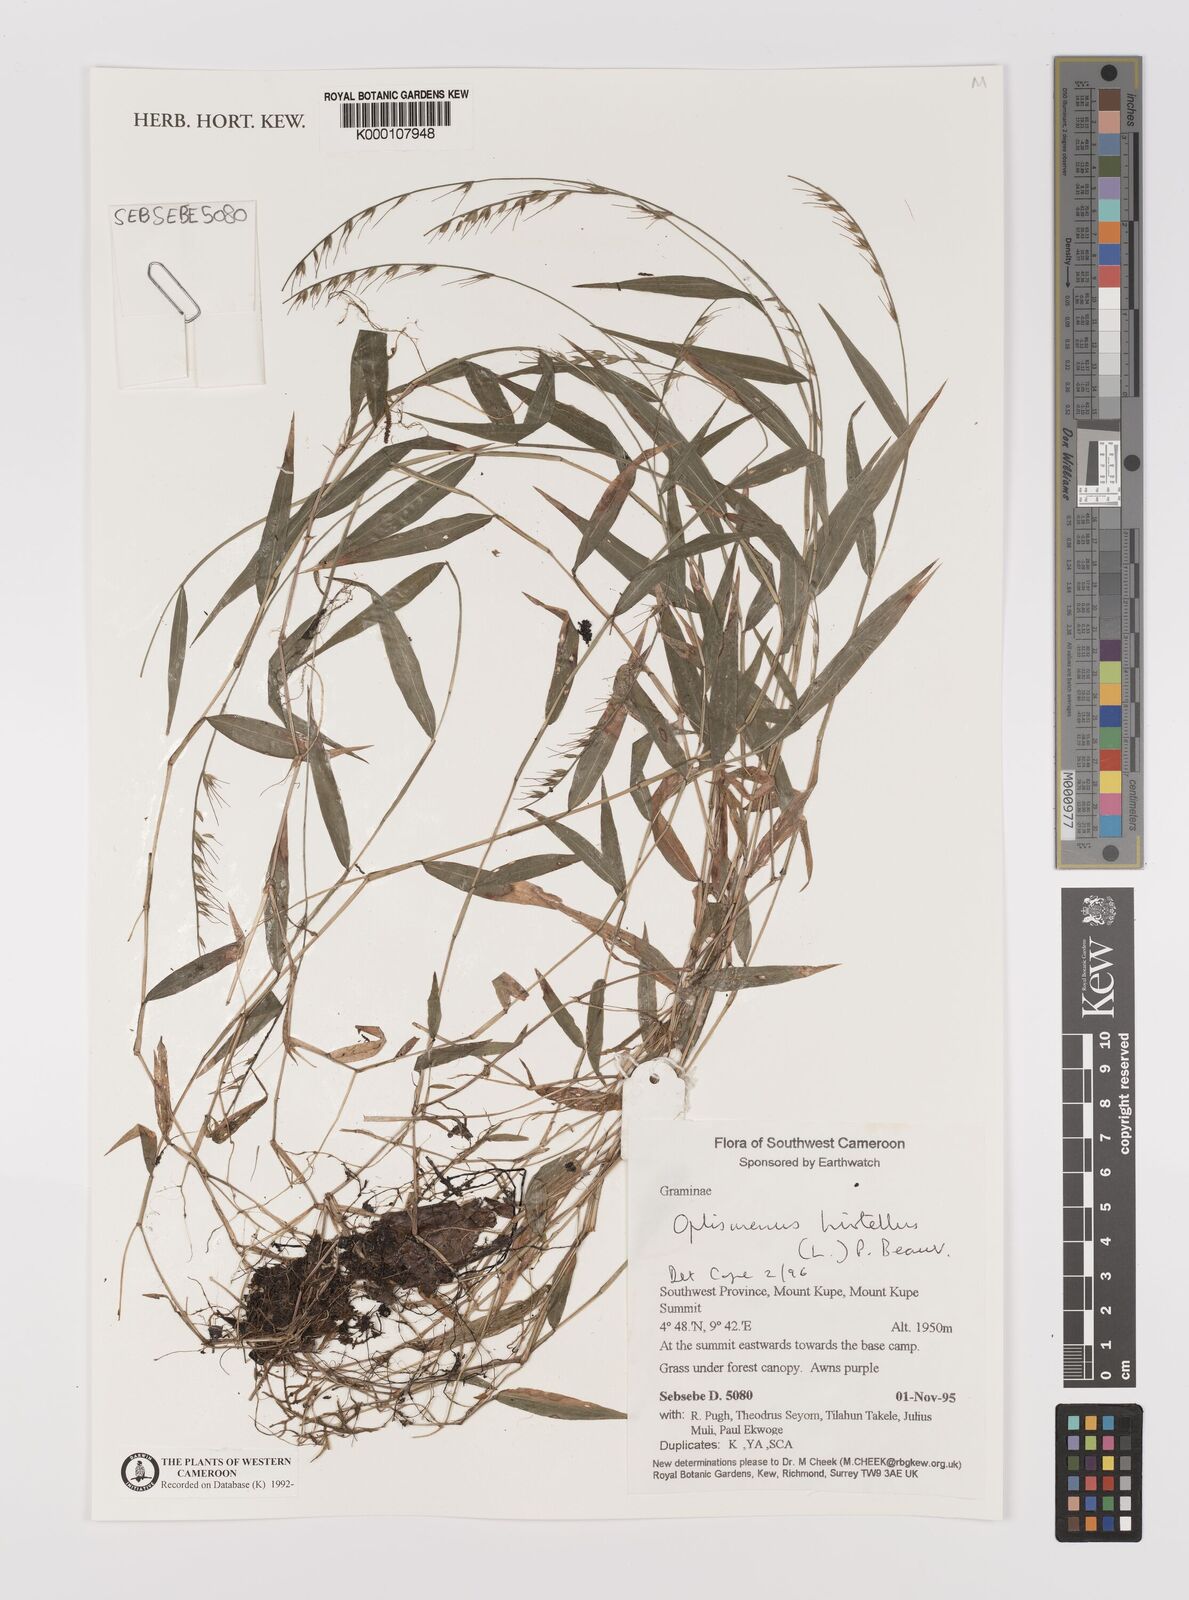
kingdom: Plantae
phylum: Tracheophyta
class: Liliopsida
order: Poales
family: Poaceae
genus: Oplismenus
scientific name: Oplismenus hirtellus
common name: Basketgrass
